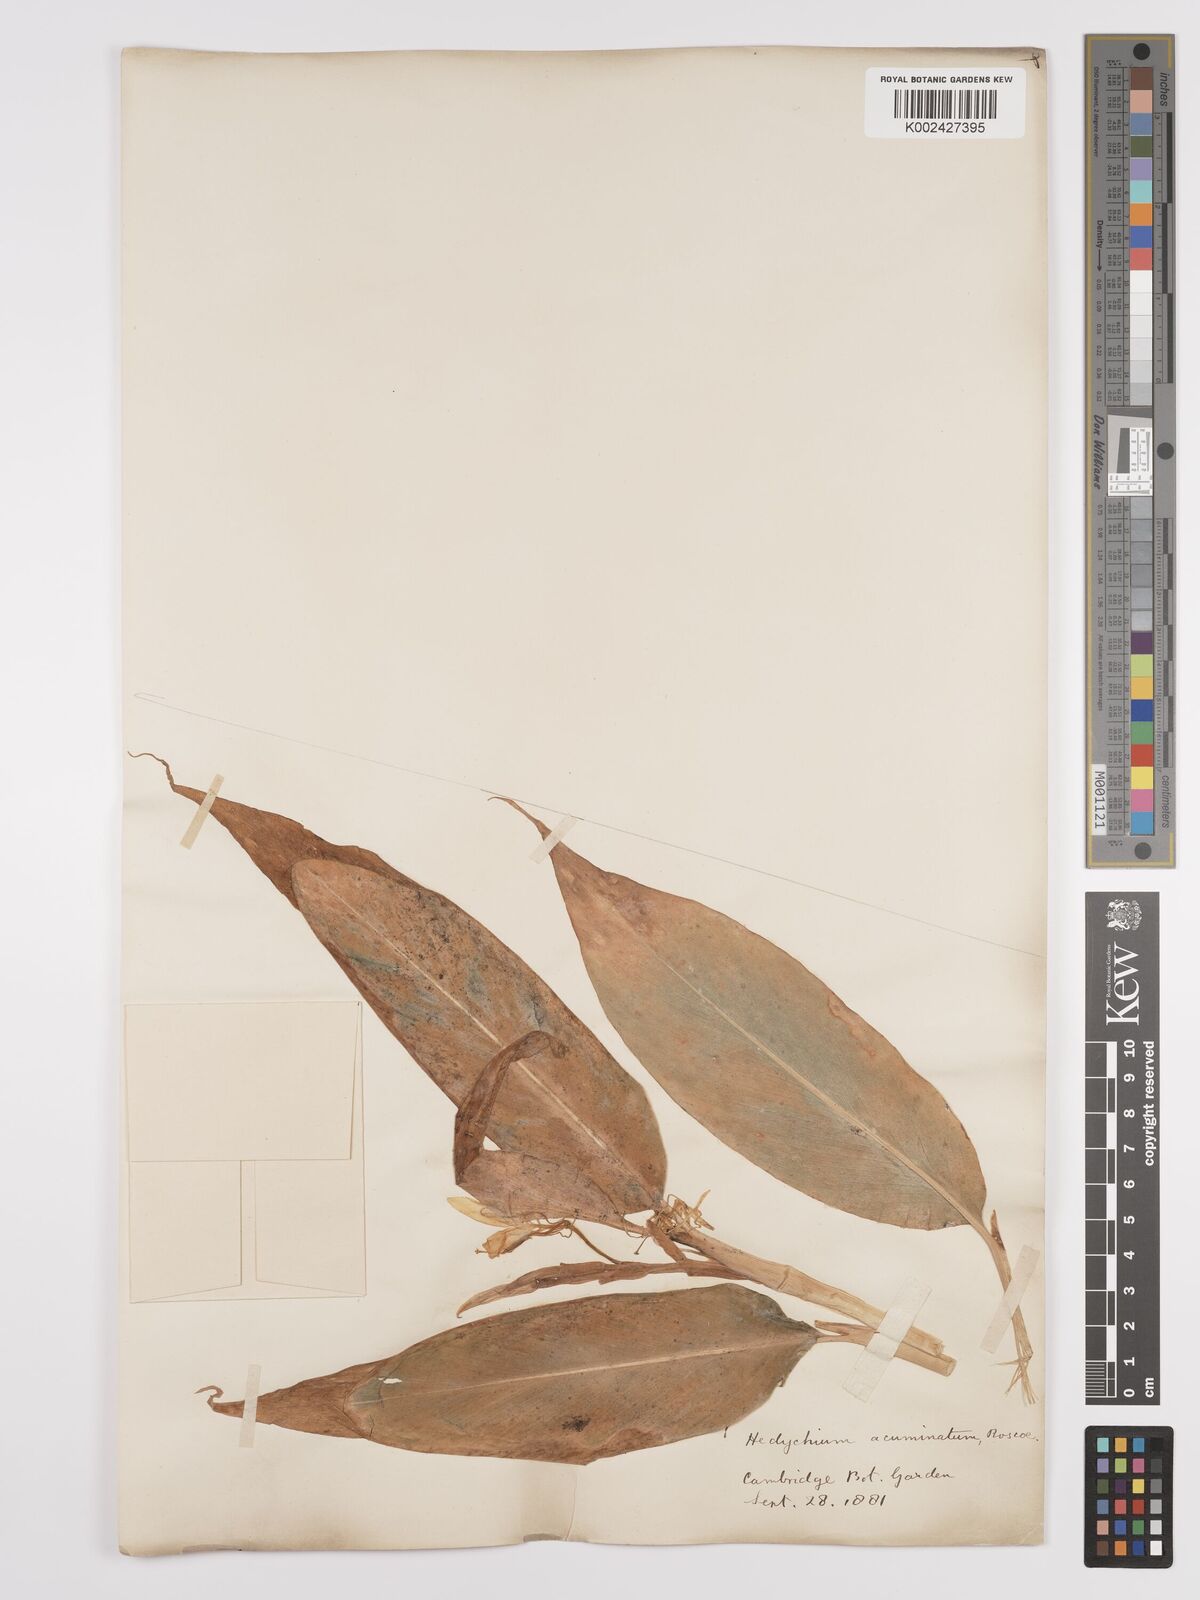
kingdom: Plantae
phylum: Tracheophyta
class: Liliopsida
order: Zingiberales
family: Zingiberaceae
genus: Hedychium
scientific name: Hedychium
